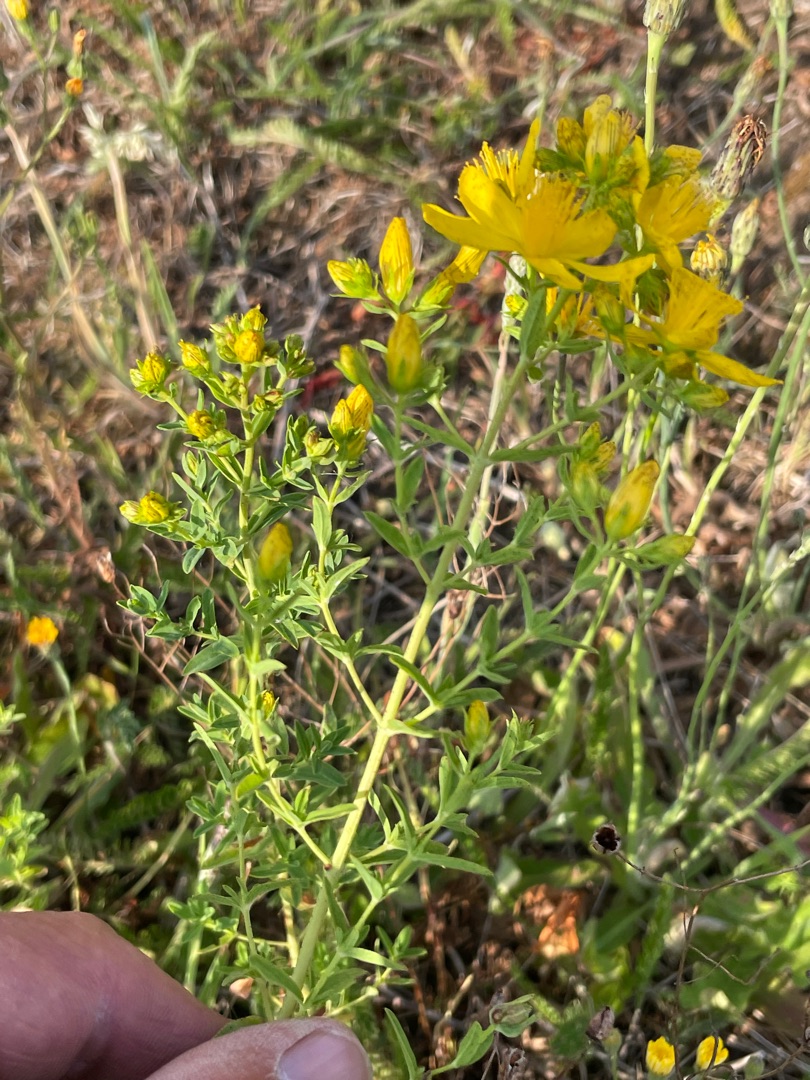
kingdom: Plantae
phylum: Tracheophyta
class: Magnoliopsida
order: Malpighiales
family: Hypericaceae
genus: Hypericum
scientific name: Hypericum perforatum
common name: Prikbladet perikon
